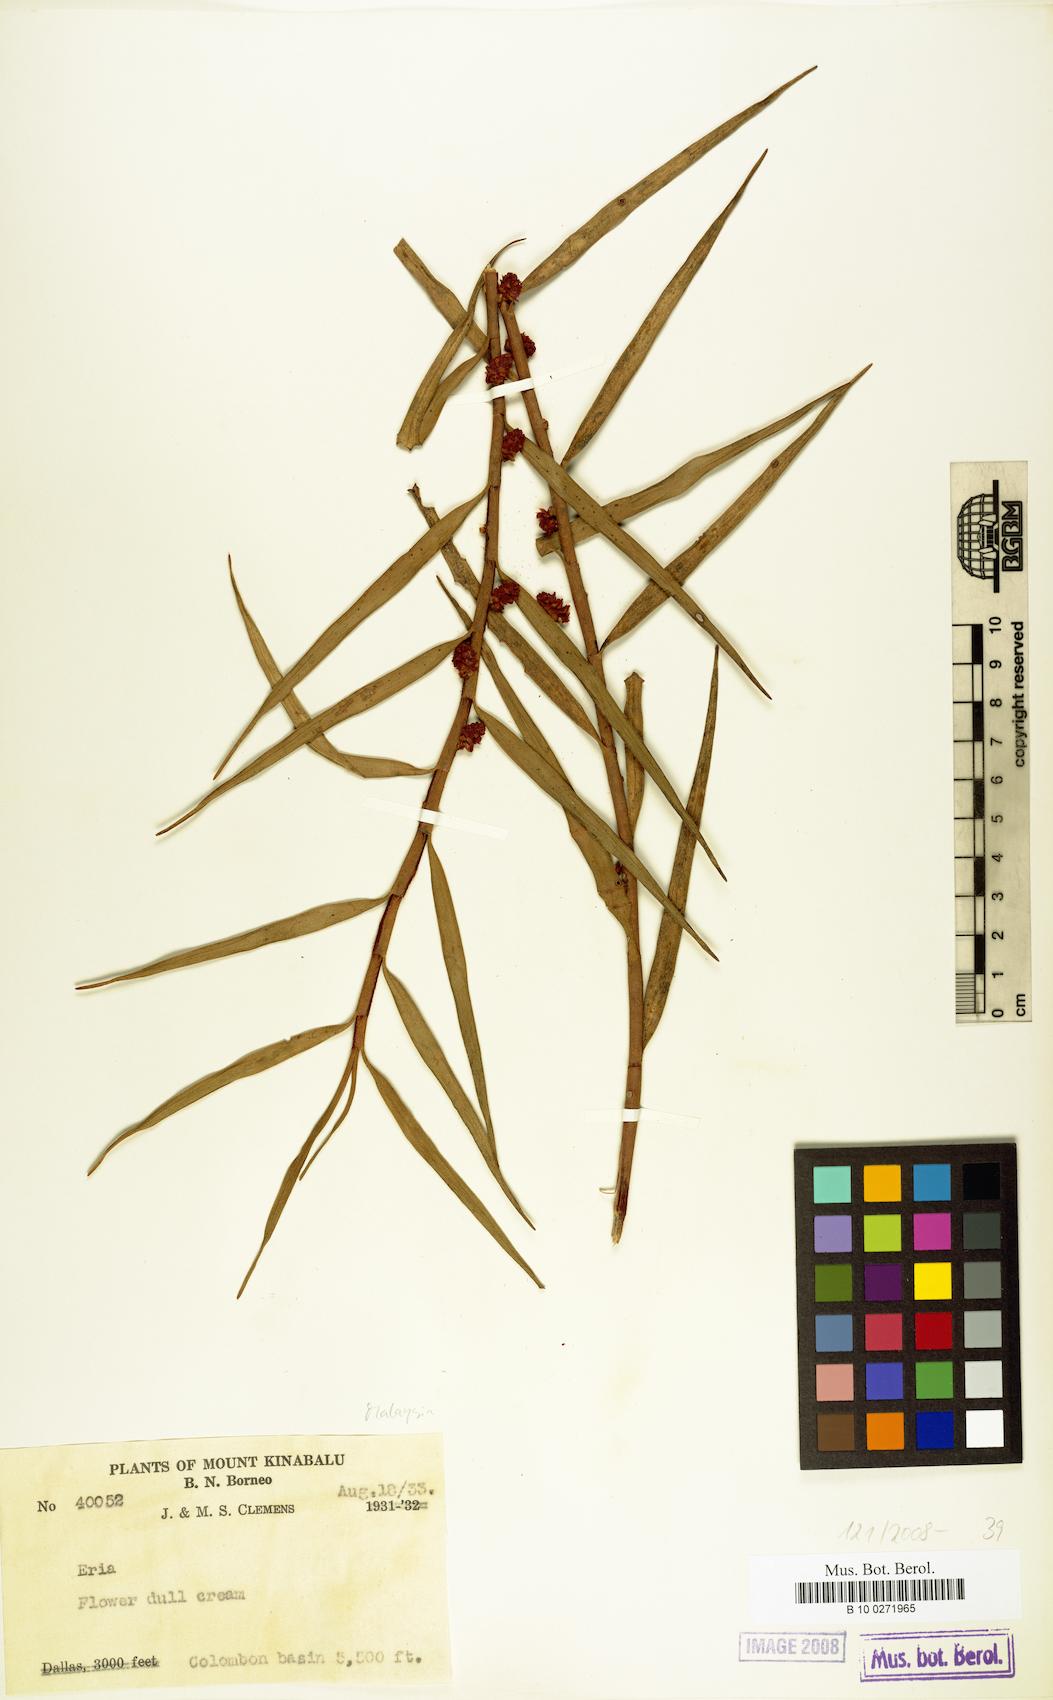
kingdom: Plantae
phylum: Tracheophyta
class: Liliopsida
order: Asparagales
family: Orchidaceae
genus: Eria
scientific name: Eria
